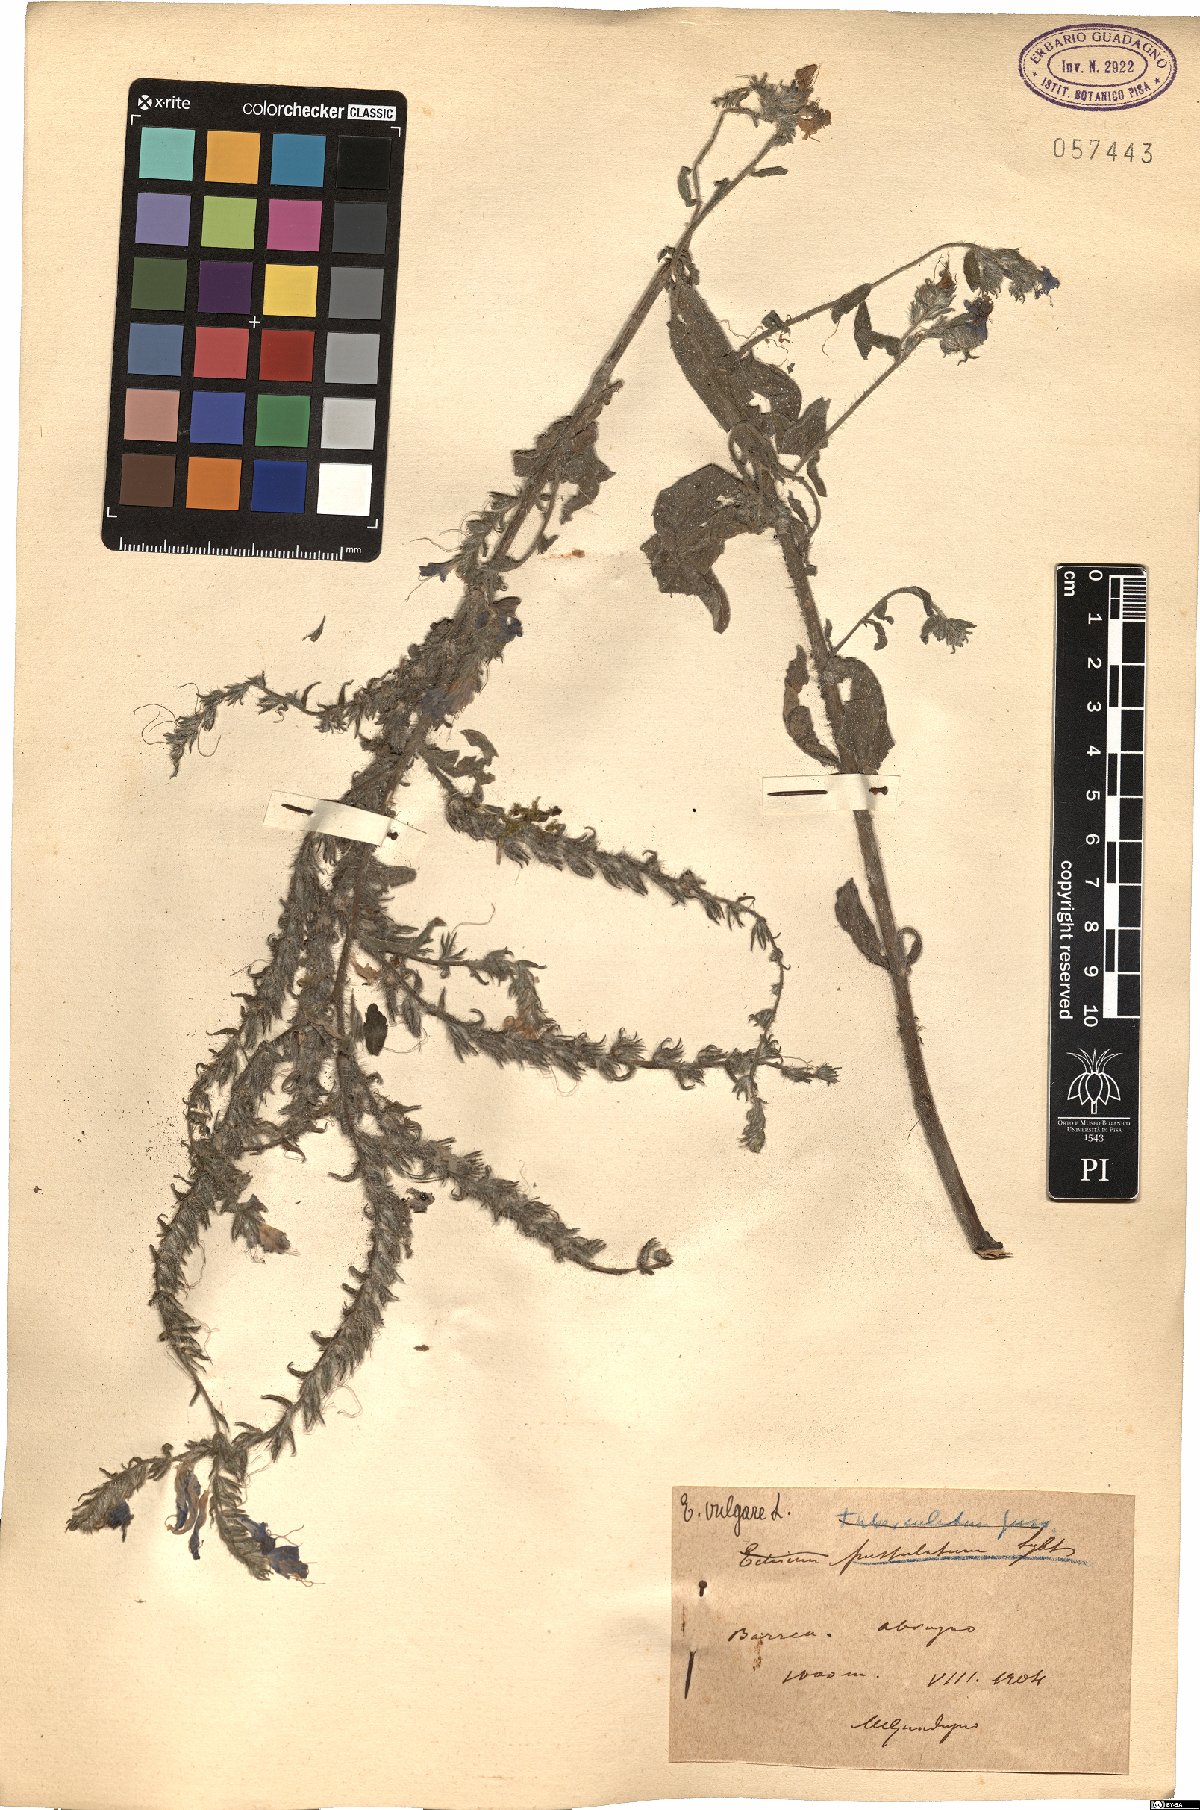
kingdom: Plantae
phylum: Tracheophyta
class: Magnoliopsida
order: Boraginales
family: Boraginaceae
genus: Echium
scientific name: Echium vulgare
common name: Common viper's bugloss
